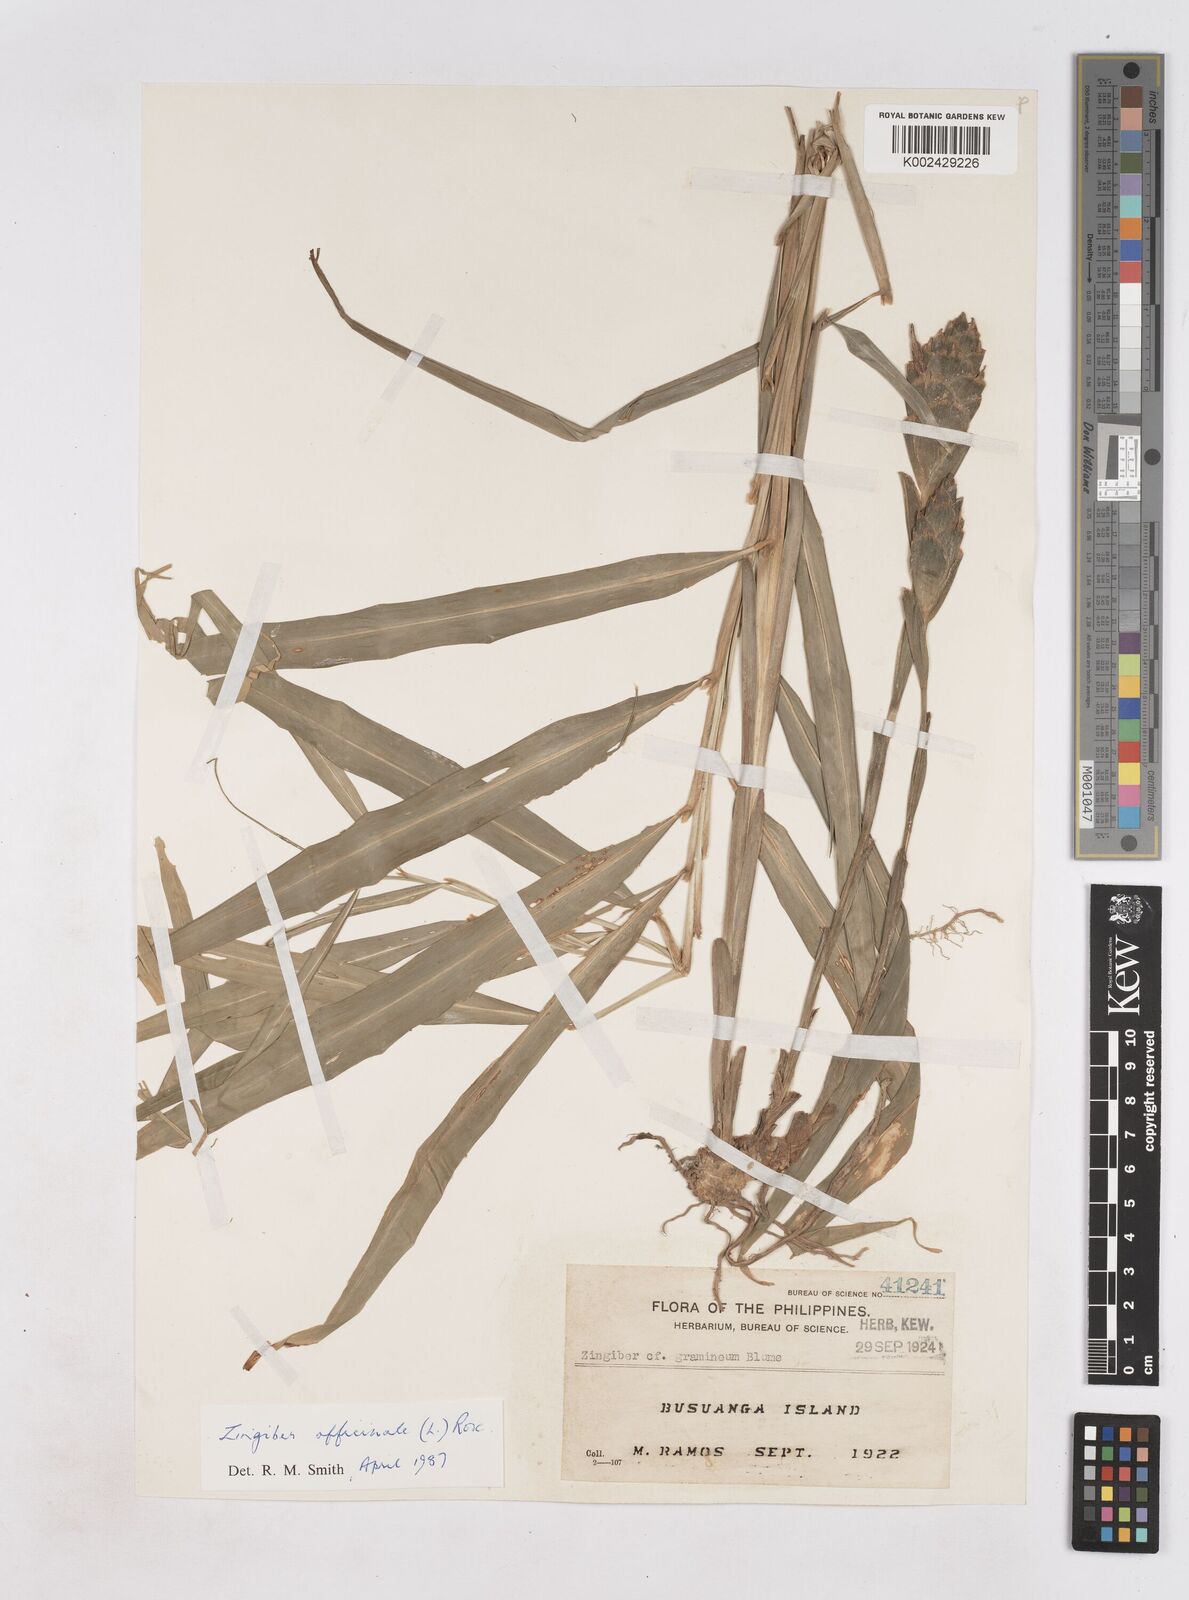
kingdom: Plantae
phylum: Tracheophyta
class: Liliopsida
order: Zingiberales
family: Zingiberaceae
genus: Zingiber
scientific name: Zingiber officinale
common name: Ginger
